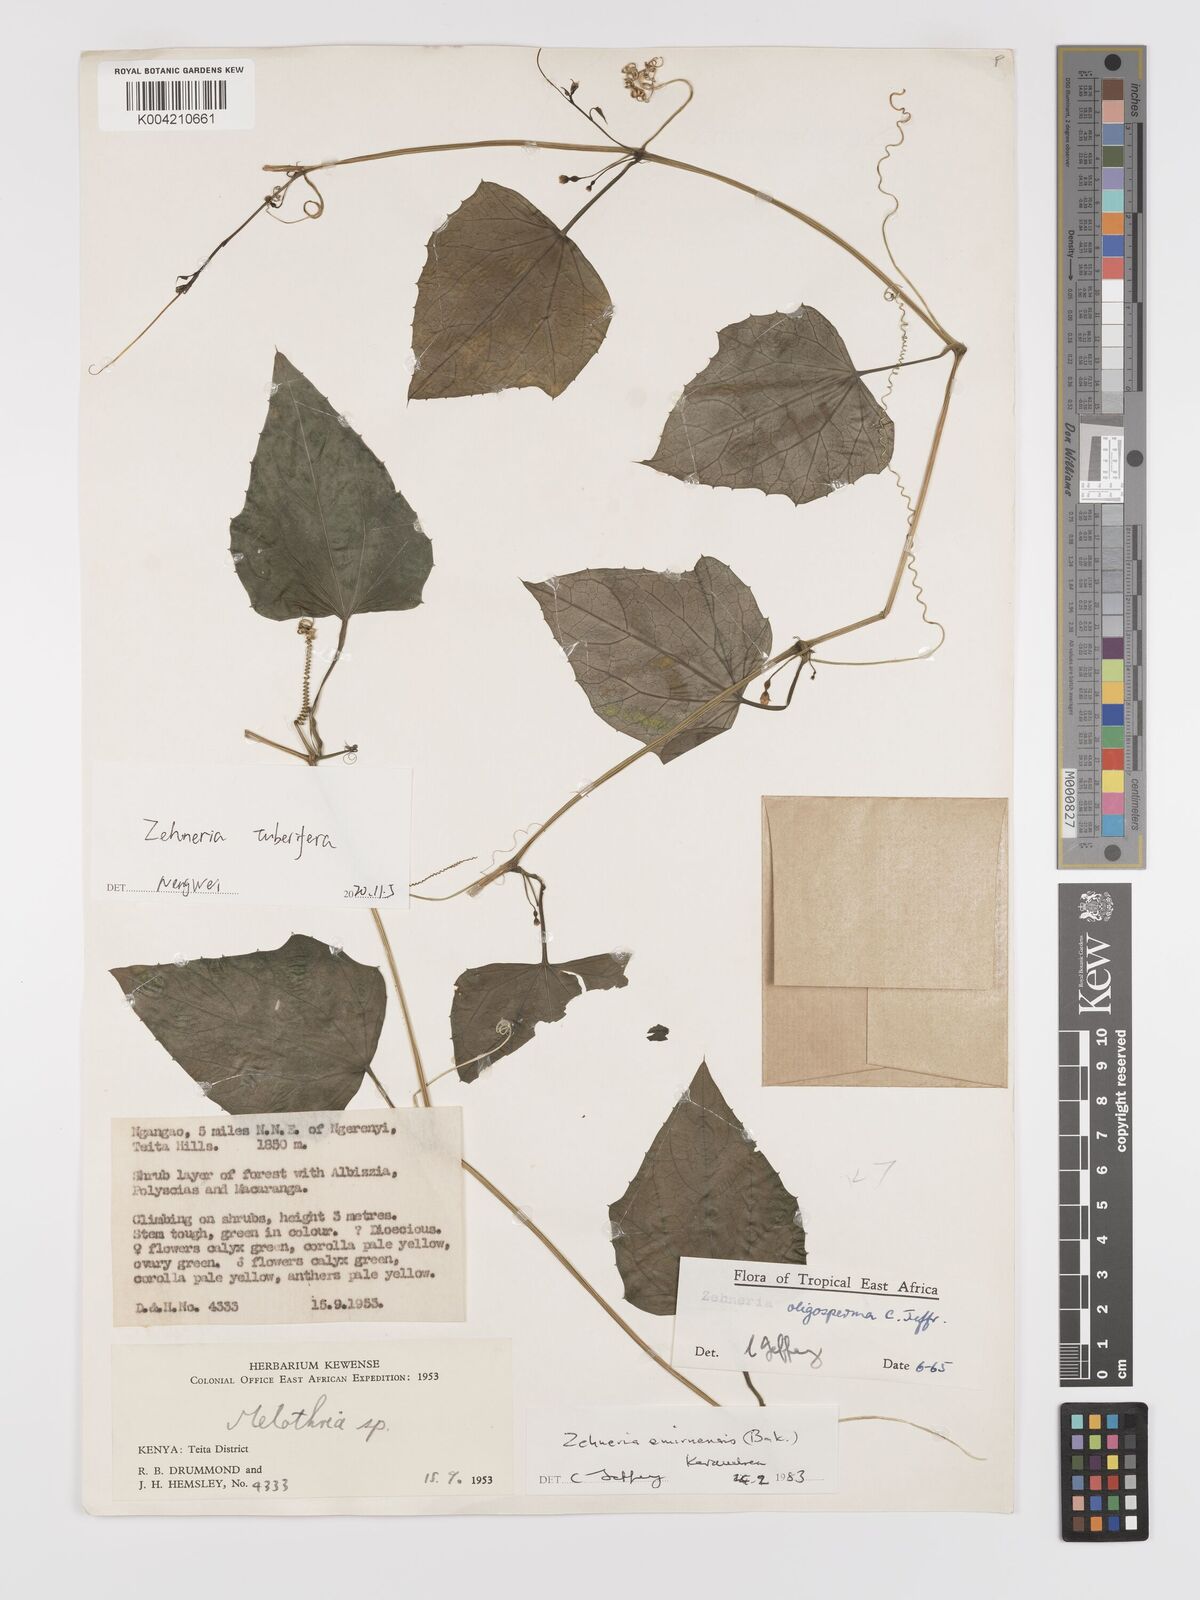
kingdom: Plantae
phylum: Tracheophyta
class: Magnoliopsida
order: Cucurbitales
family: Cucurbitaceae
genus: Zehneria
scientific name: Zehneria tuberifera
